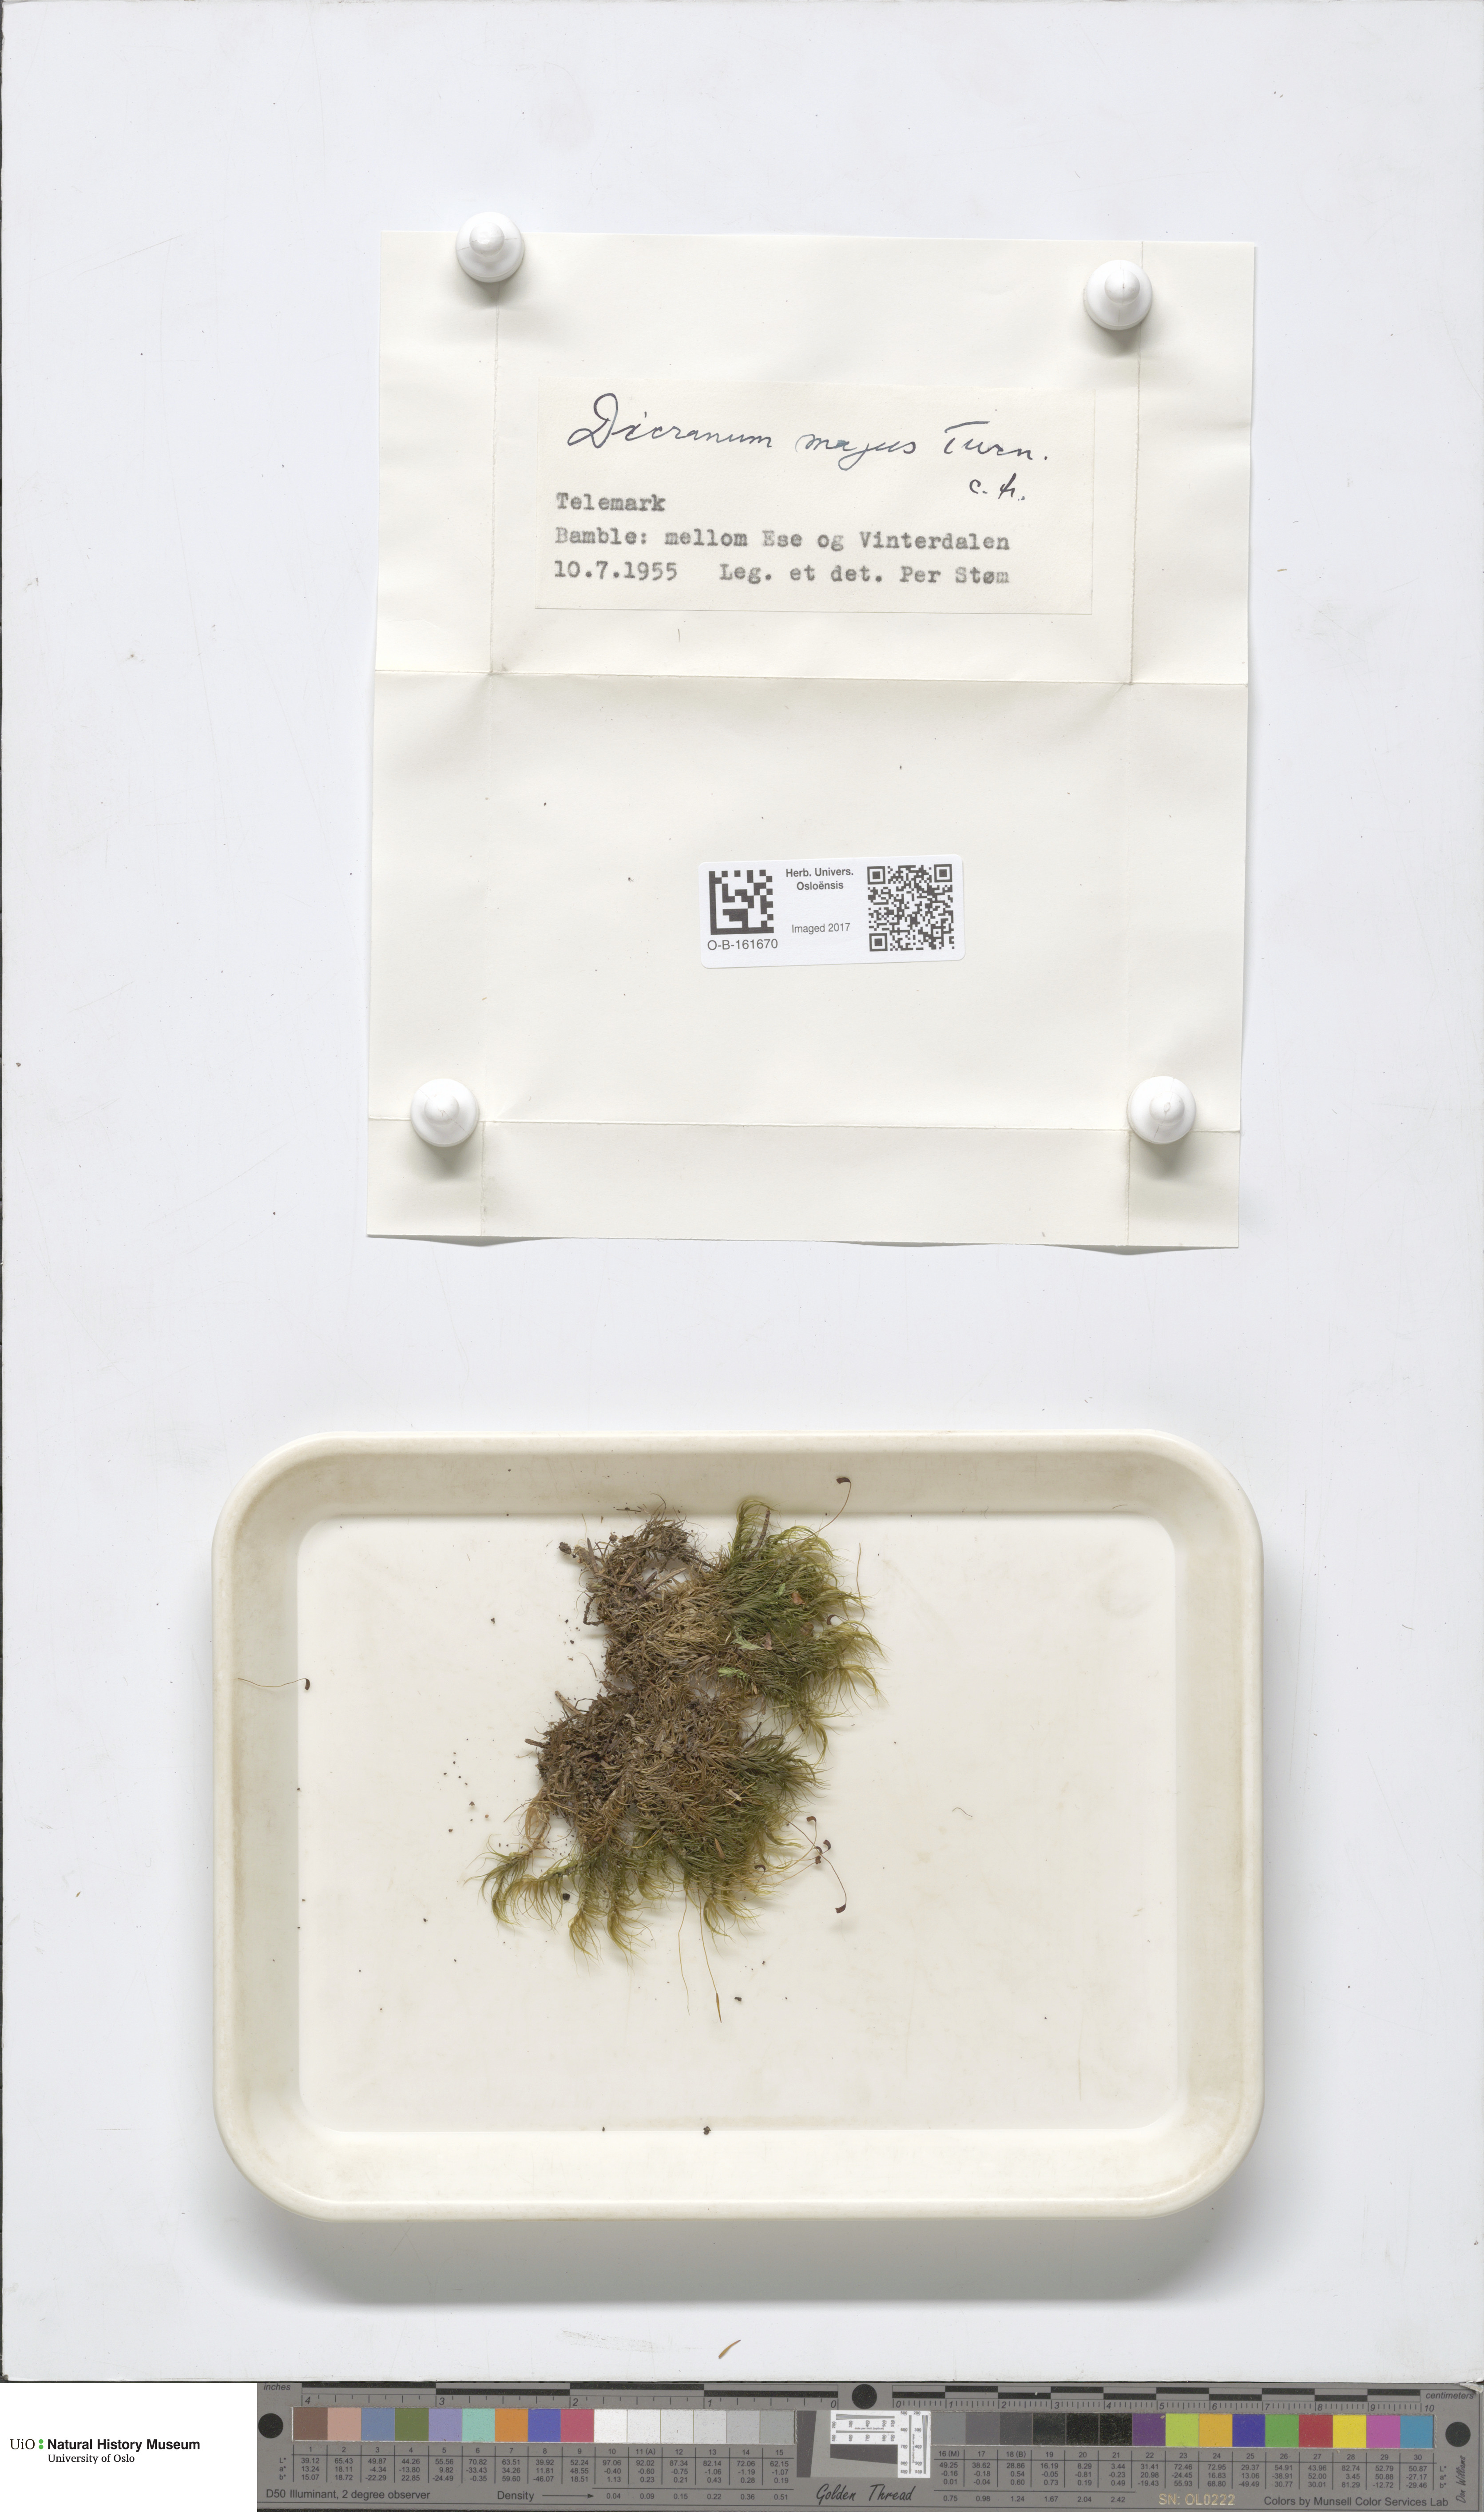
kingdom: Plantae
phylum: Bryophyta
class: Bryopsida
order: Dicranales
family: Dicranaceae
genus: Dicranum
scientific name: Dicranum majus
